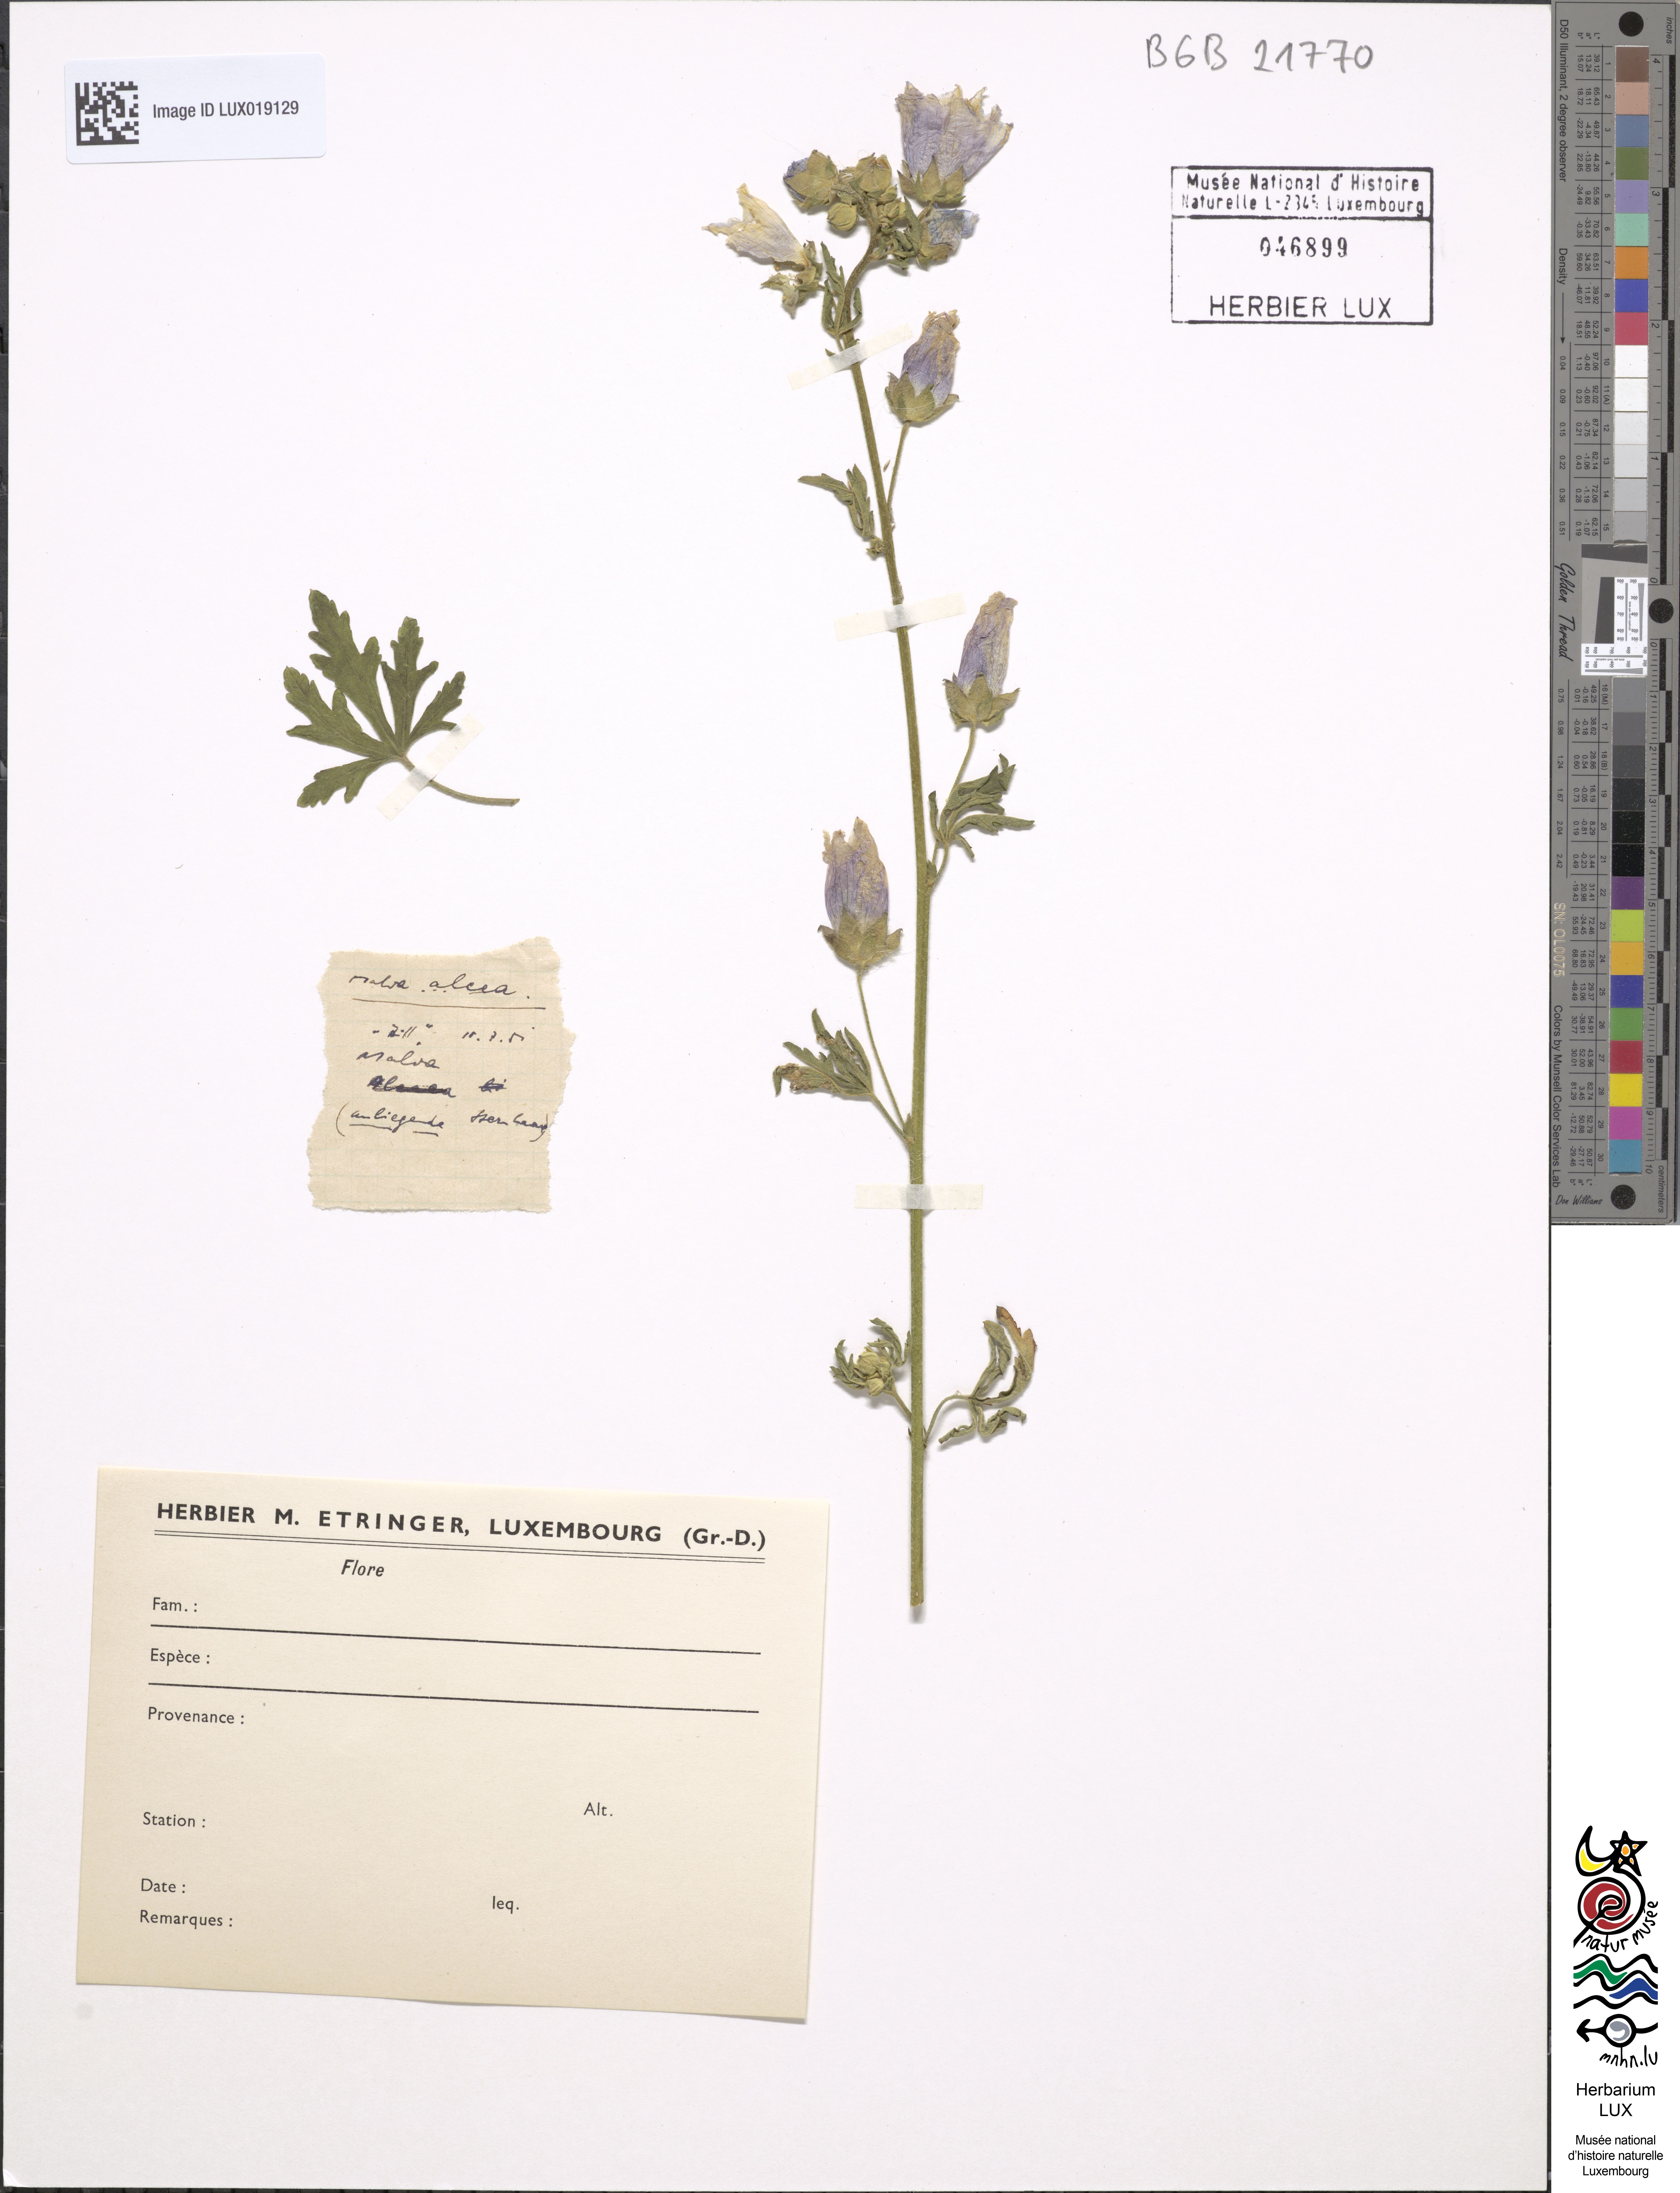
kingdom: Plantae
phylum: Tracheophyta
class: Magnoliopsida
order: Malvales
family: Malvaceae
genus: Malva
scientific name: Malva alcea
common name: Greater musk-mallow
